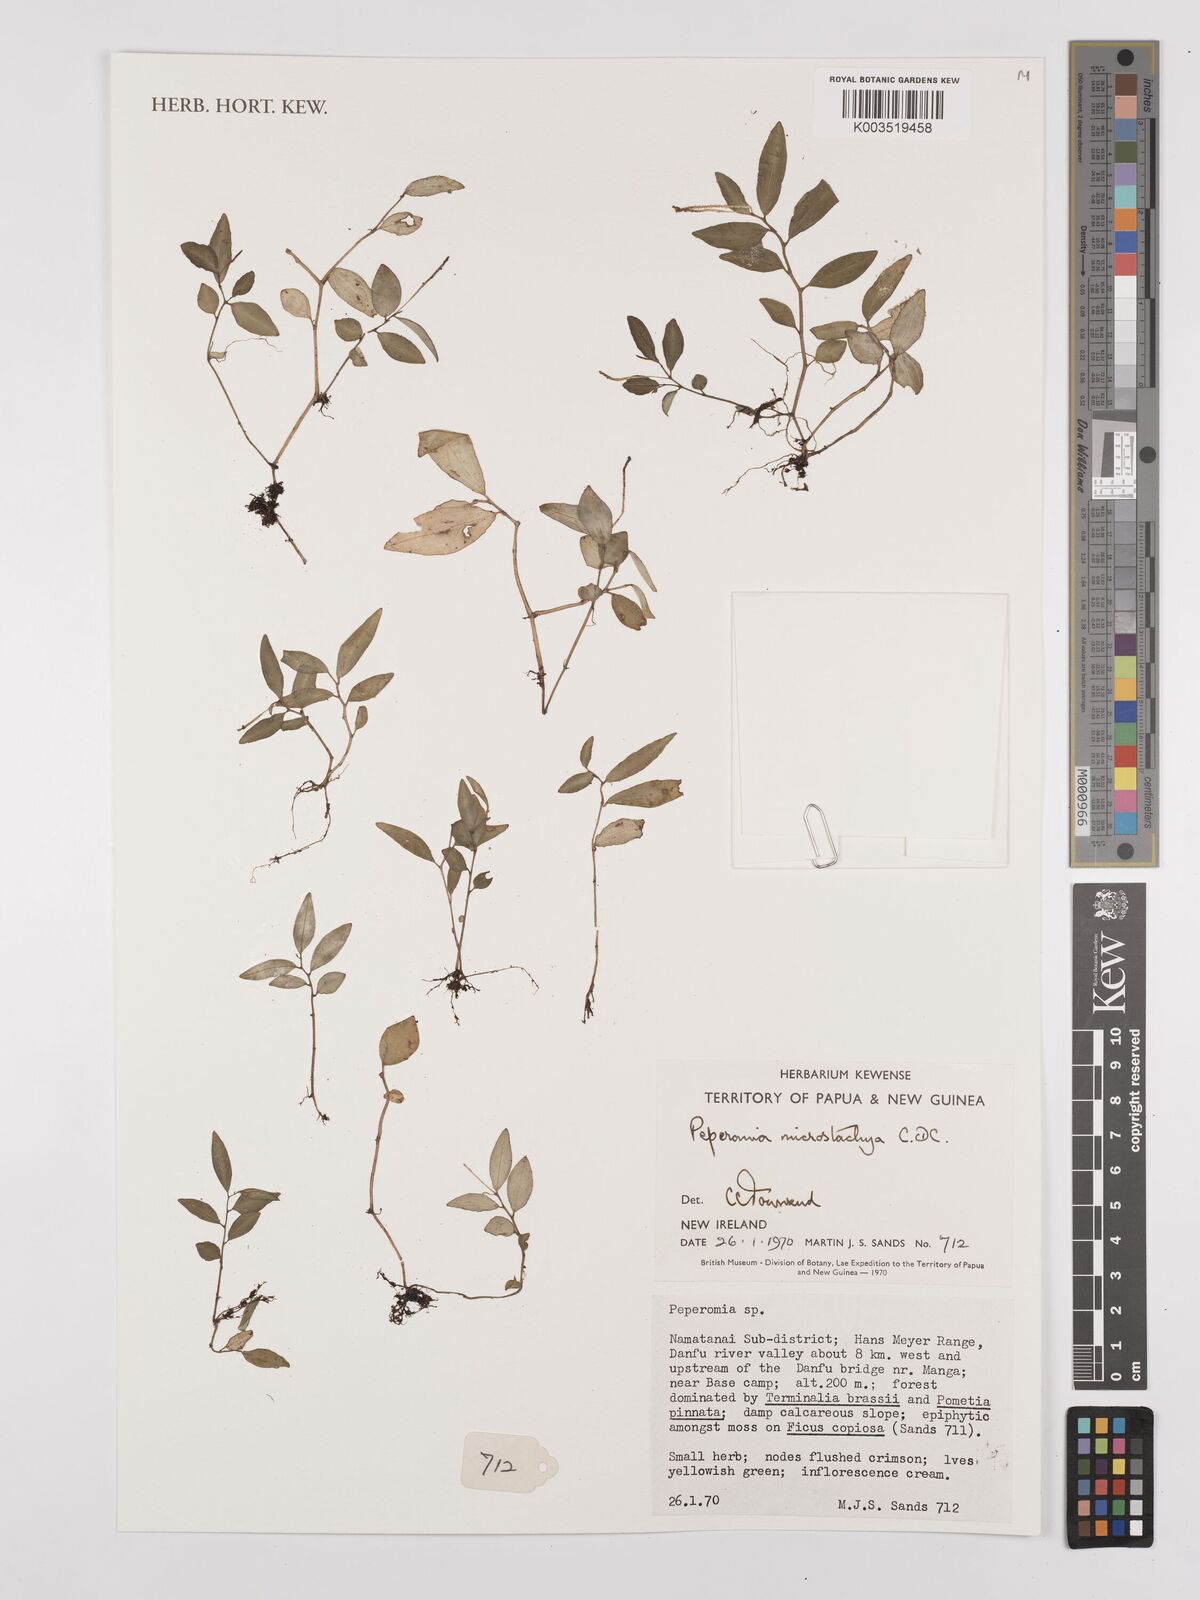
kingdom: Plantae
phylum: Tracheophyta
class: Magnoliopsida
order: Piperales
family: Piperaceae
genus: Peperomia
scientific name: Peperomia microstachya
